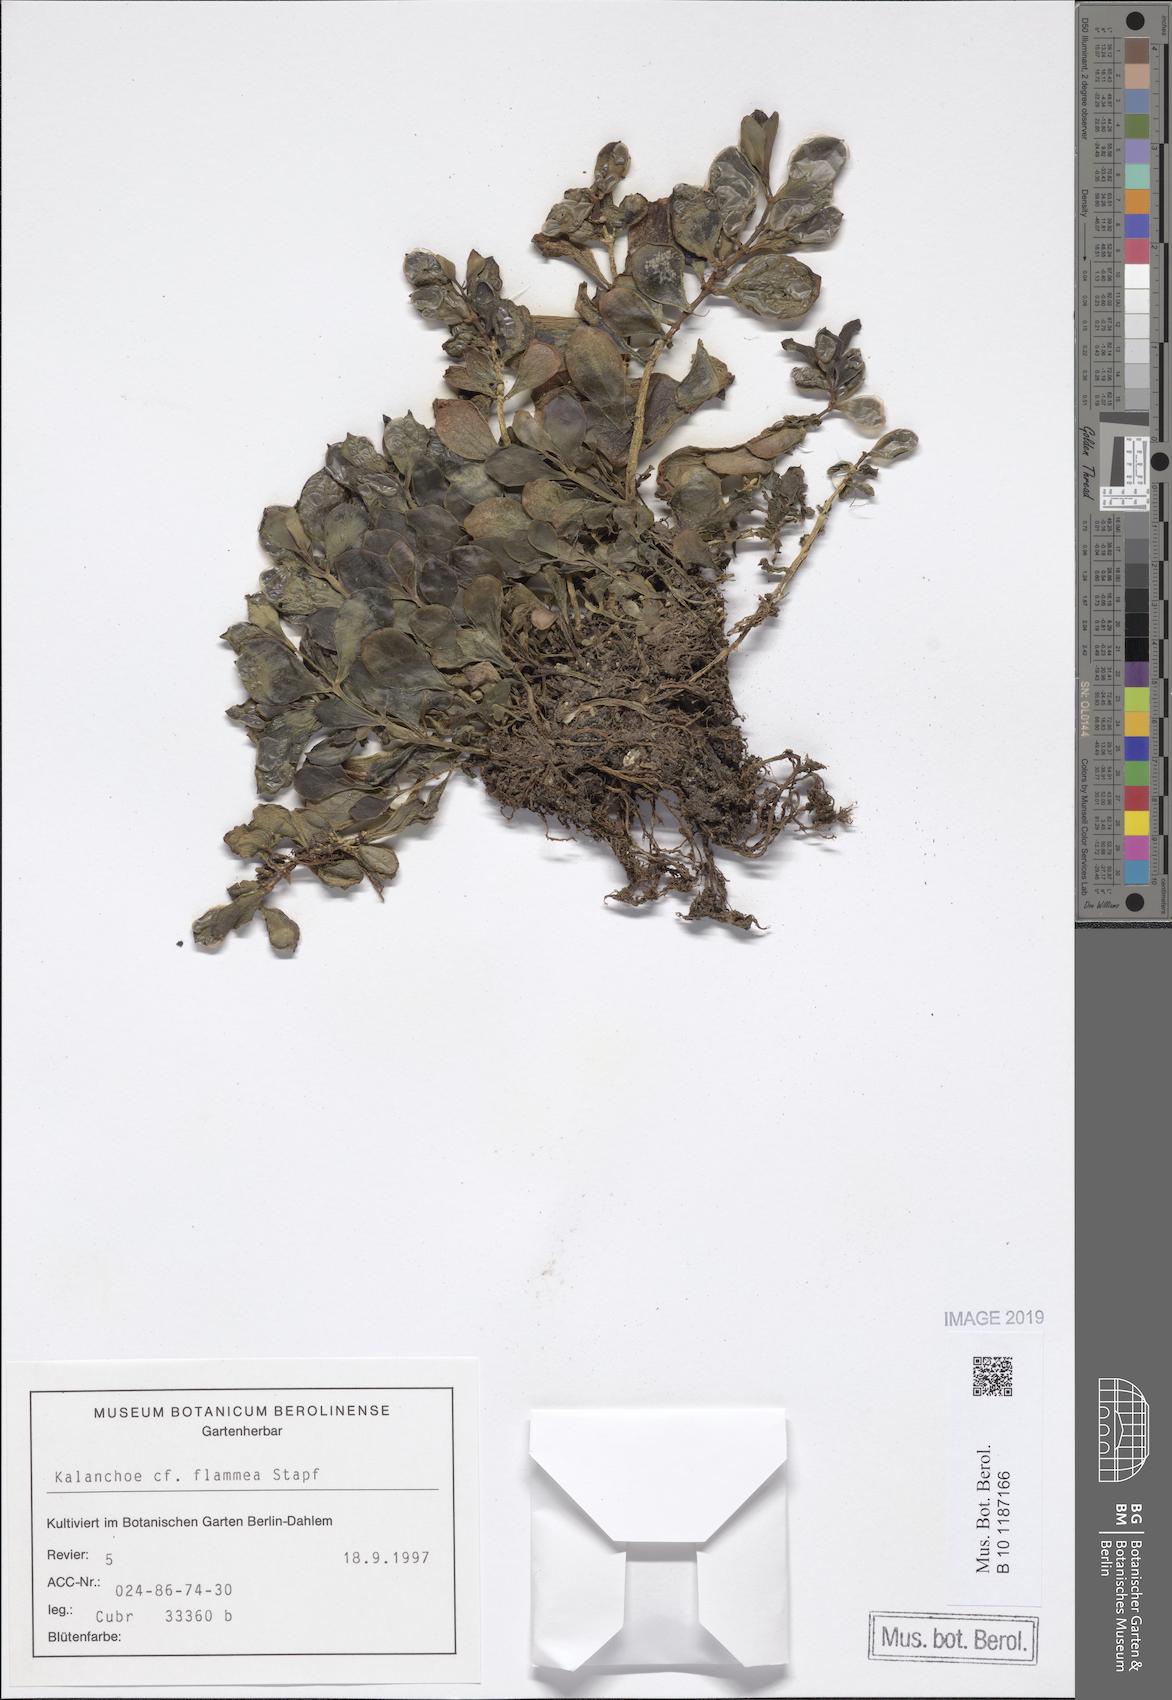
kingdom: Plantae
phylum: Tracheophyta
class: Magnoliopsida
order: Saxifragales
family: Crassulaceae
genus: Kalanchoe
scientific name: Kalanchoe glaucescens
